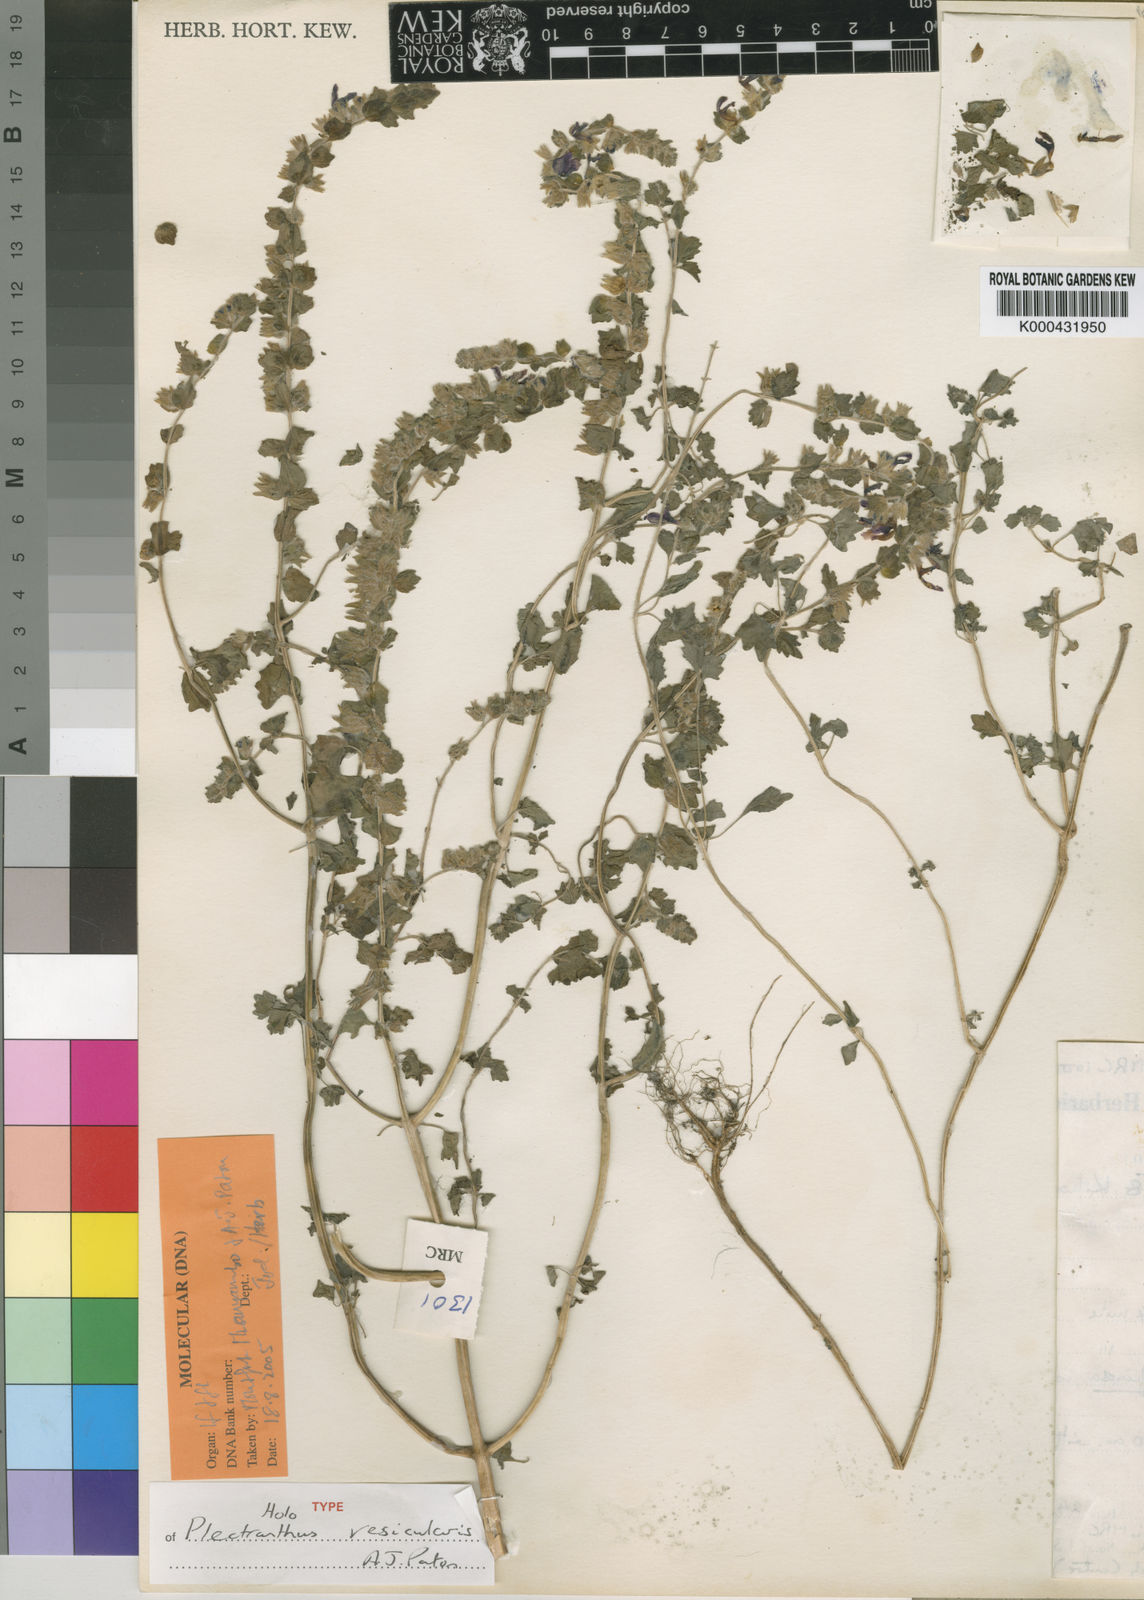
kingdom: Plantae
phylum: Tracheophyta
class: Magnoliopsida
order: Lamiales
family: Lamiaceae
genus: Equilabium
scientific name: Equilabium vesiculare
